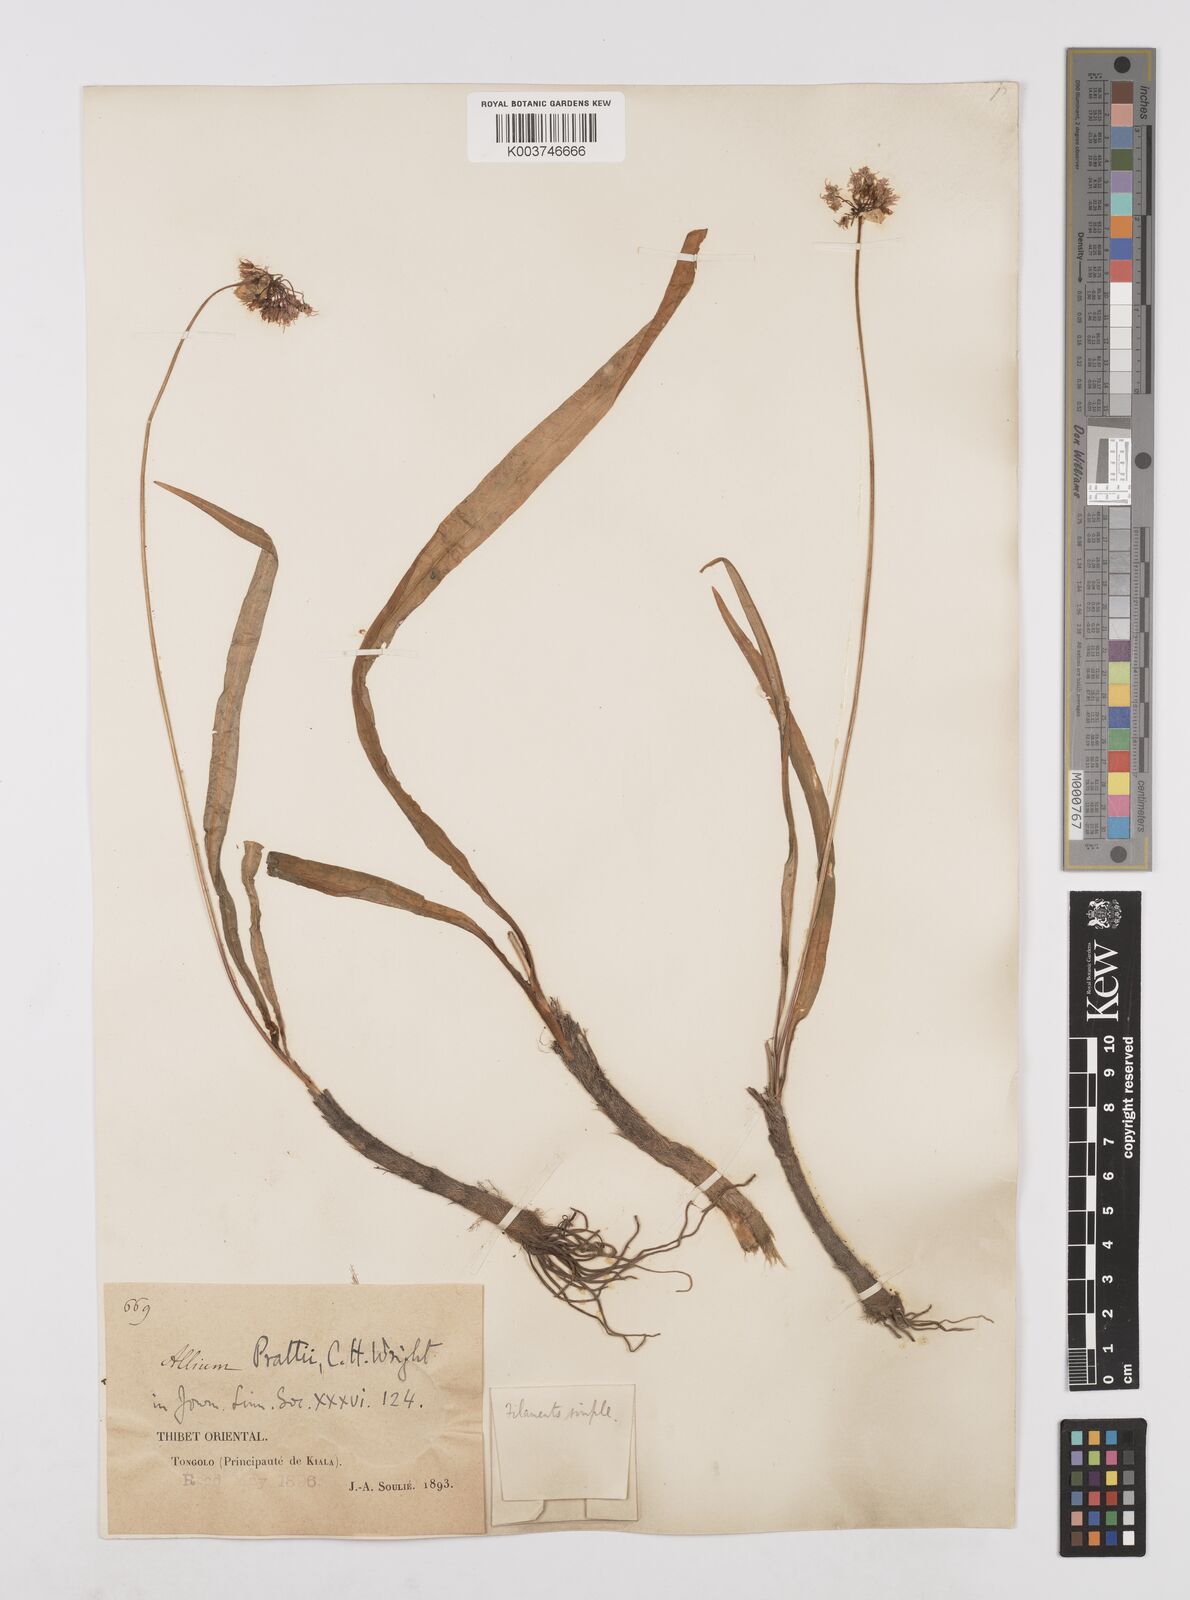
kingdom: Plantae
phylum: Tracheophyta
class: Liliopsida
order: Asparagales
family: Amaryllidaceae
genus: Allium
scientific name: Allium prattii
